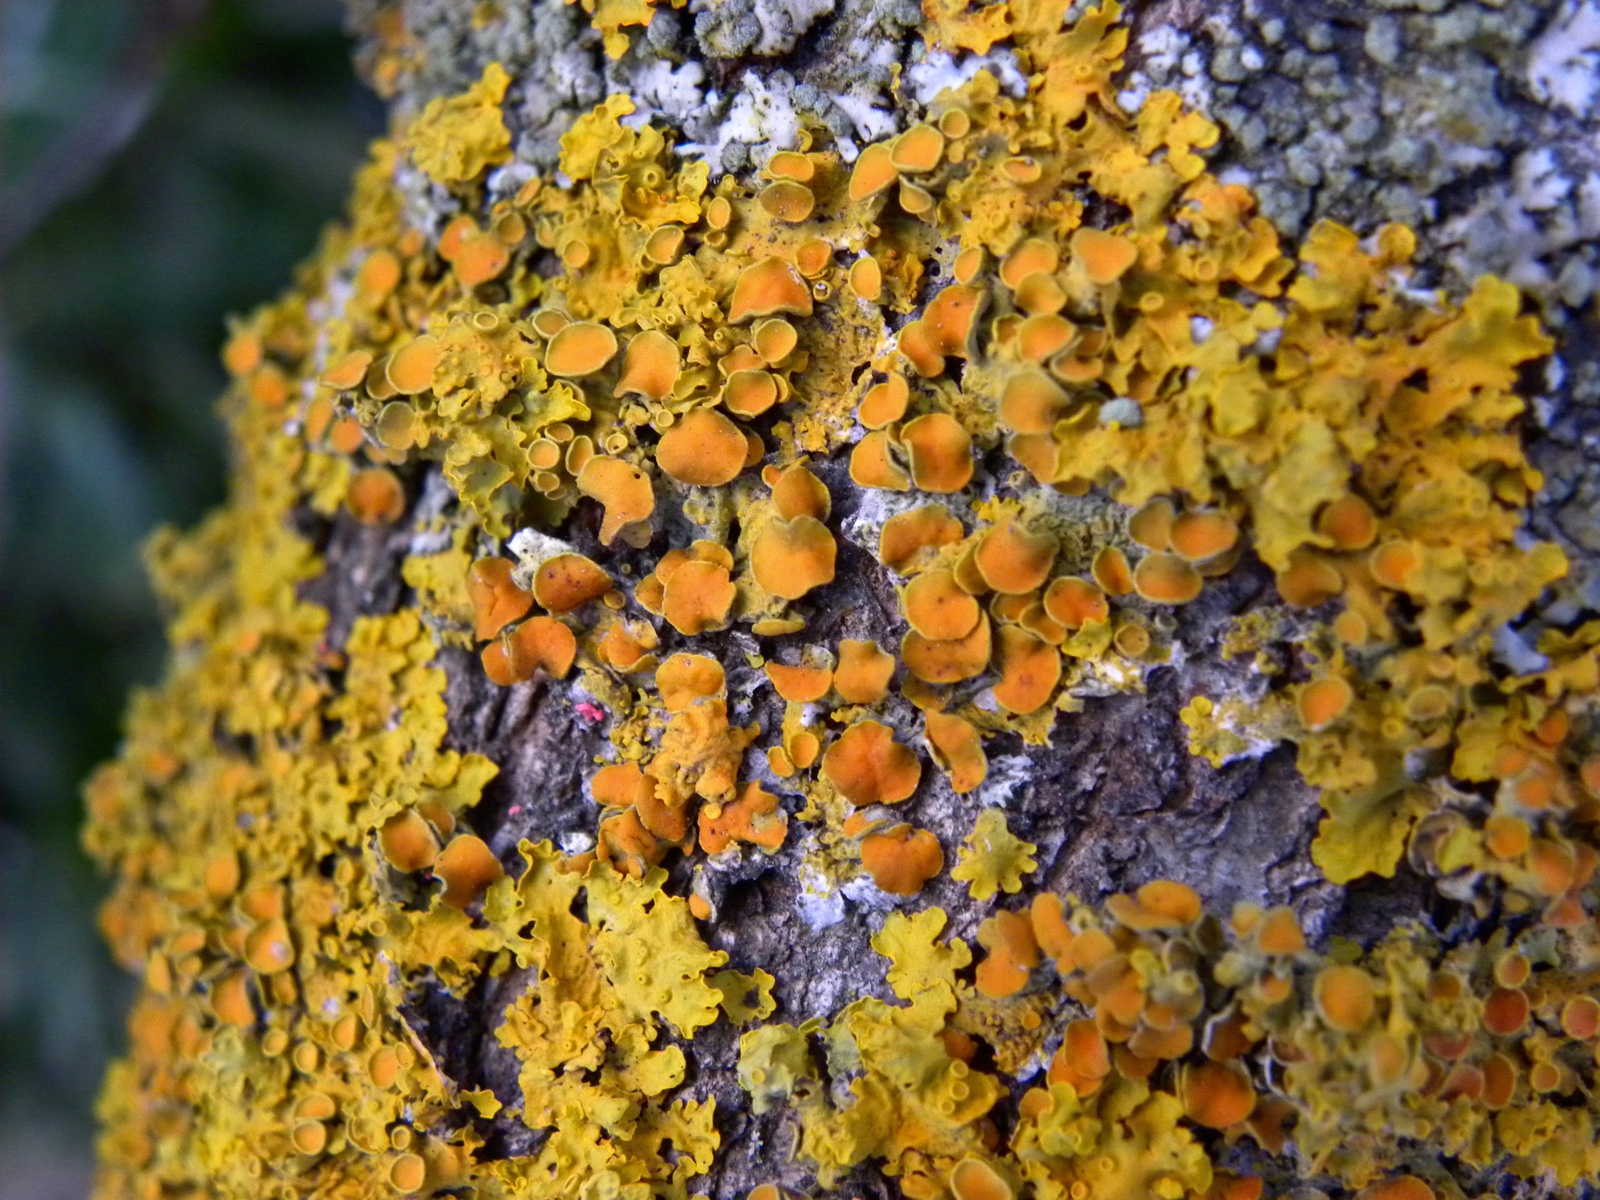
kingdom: Fungi
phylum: Ascomycota
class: Lecanoromycetes
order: Teloschistales
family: Teloschistaceae
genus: Xanthoria
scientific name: Xanthoria parietina
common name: almindelig væggelav
